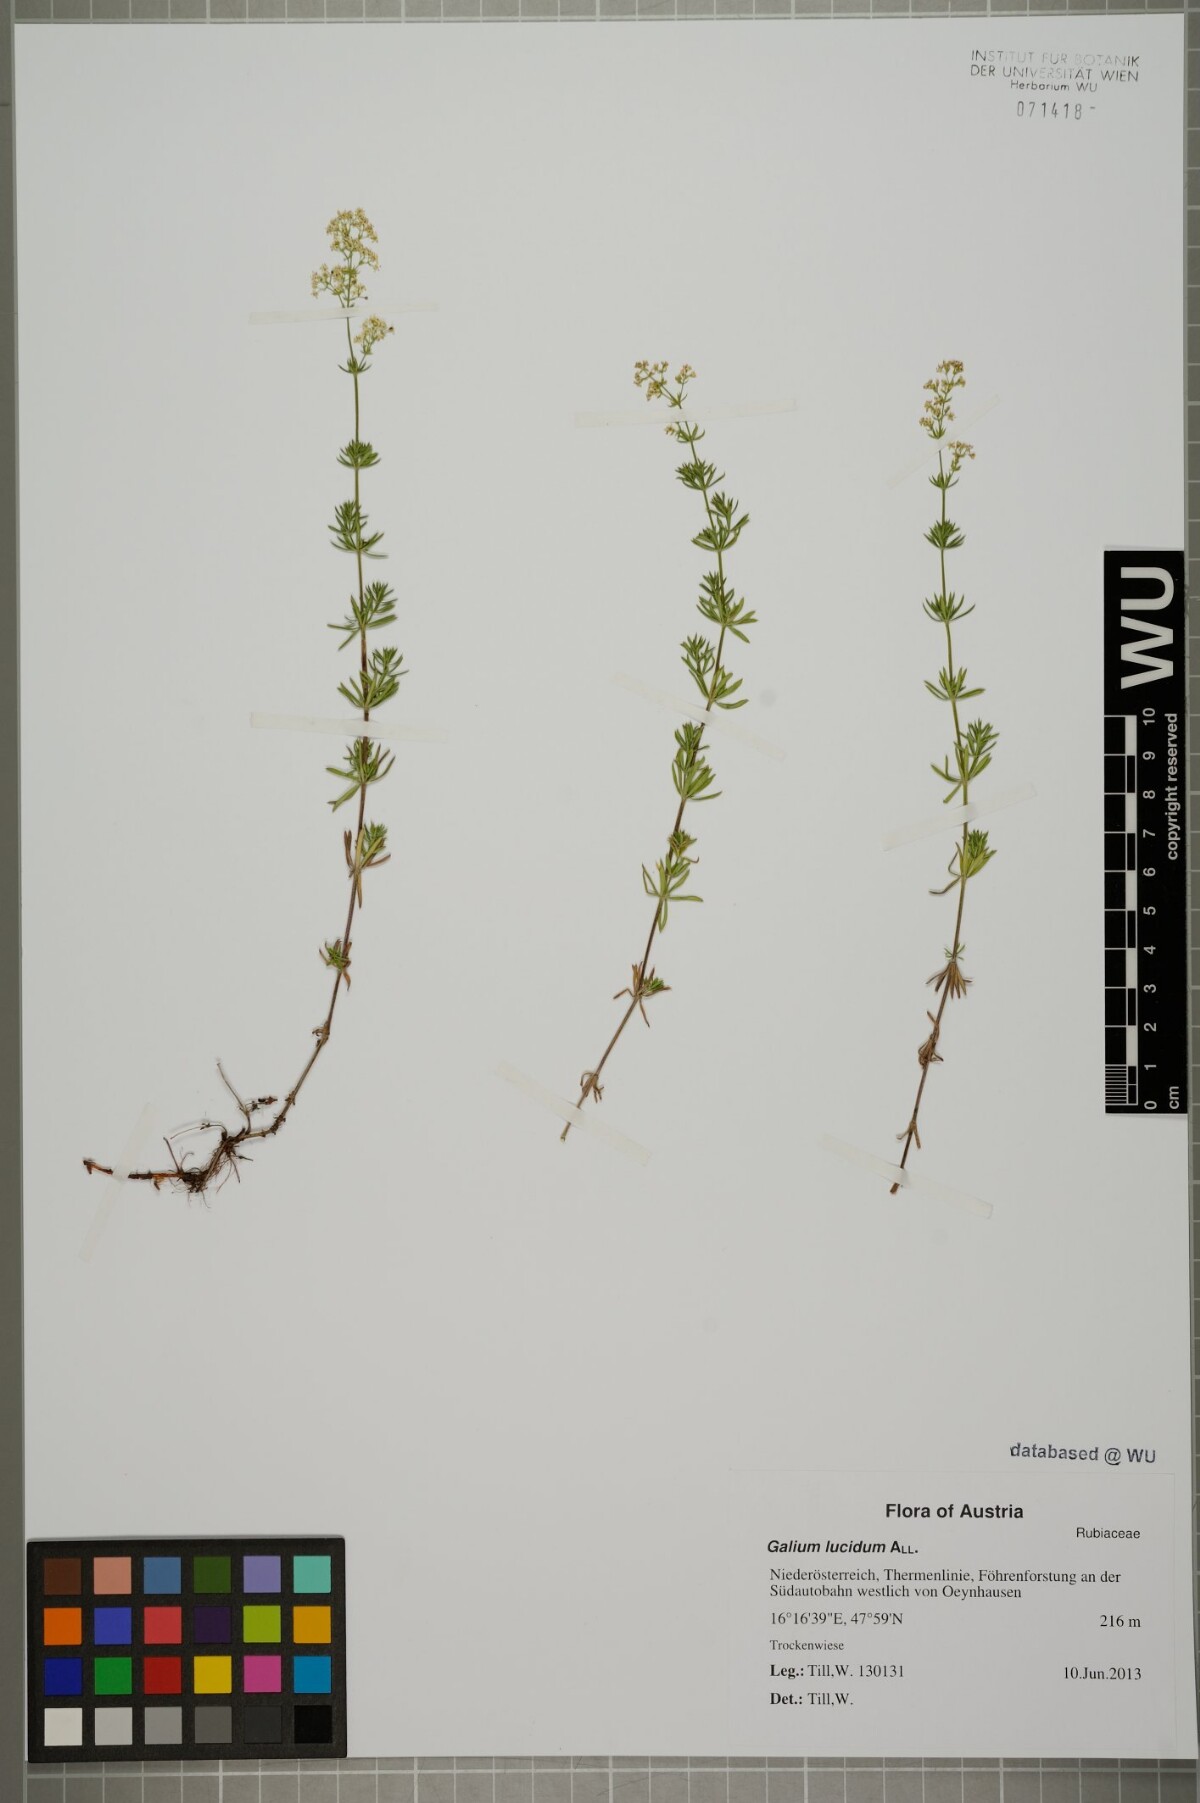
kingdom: Plantae
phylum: Tracheophyta
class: Magnoliopsida
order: Gentianales
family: Rubiaceae
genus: Galium
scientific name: Galium lucidum
